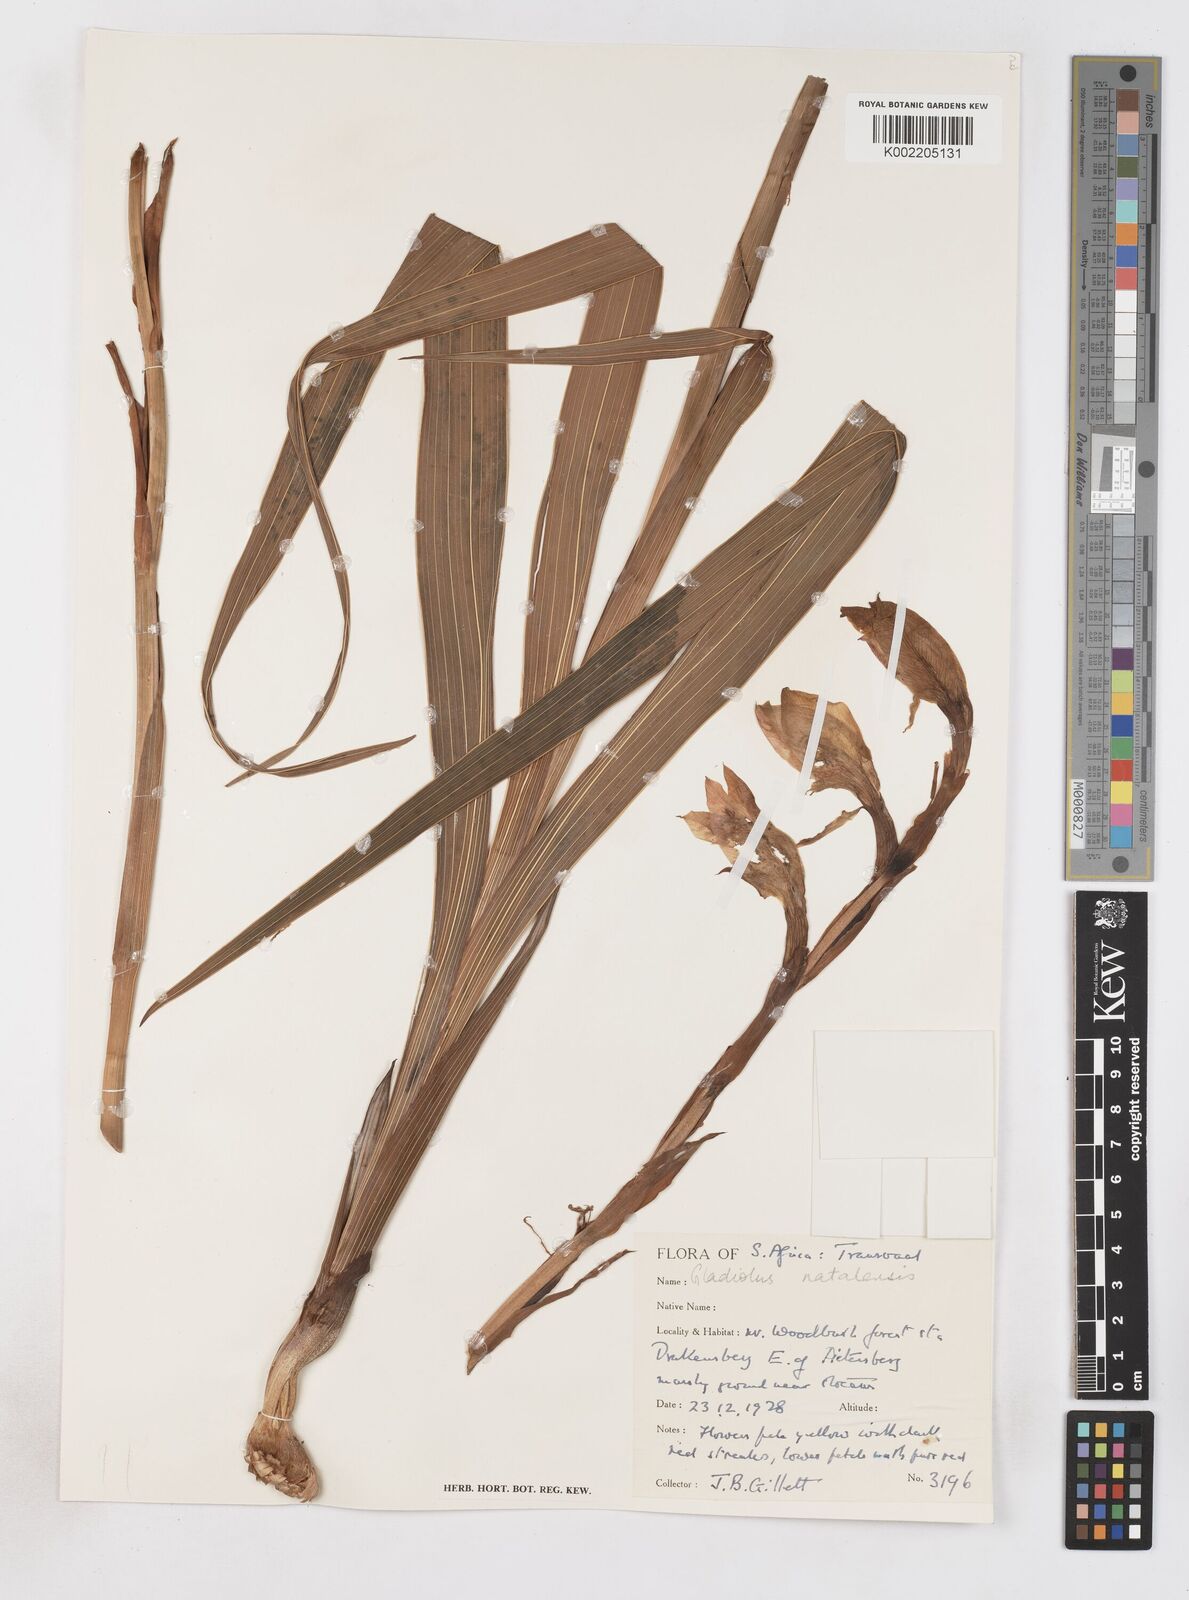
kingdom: Plantae
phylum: Tracheophyta
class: Liliopsida
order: Asparagales
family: Iridaceae
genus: Gladiolus
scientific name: Gladiolus dalenii
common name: Cornflag
